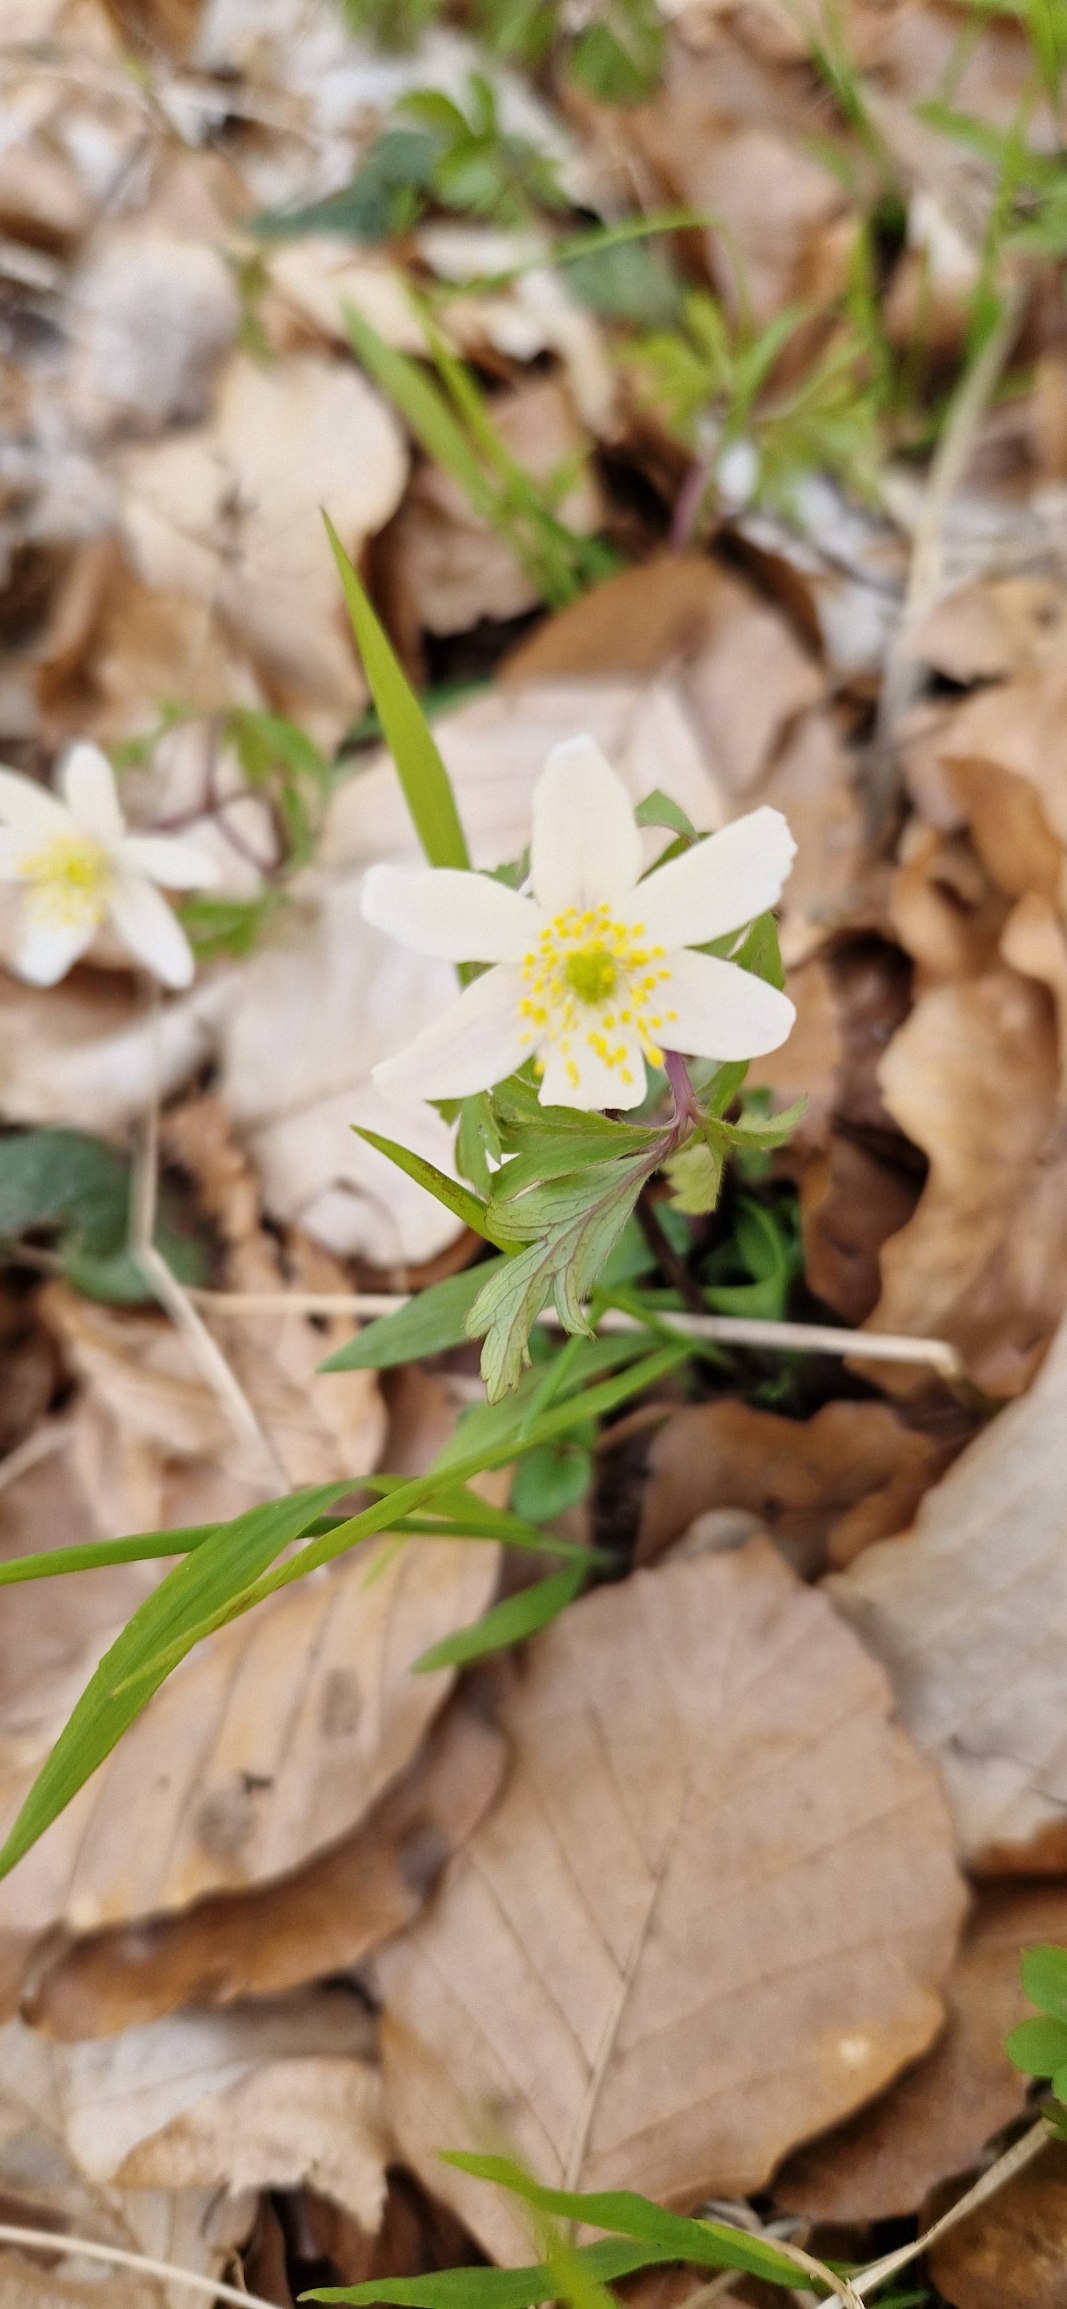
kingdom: Plantae
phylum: Tracheophyta
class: Magnoliopsida
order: Ranunculales
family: Ranunculaceae
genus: Anemone
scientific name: Anemone nemorosa
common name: Hvid anemone
